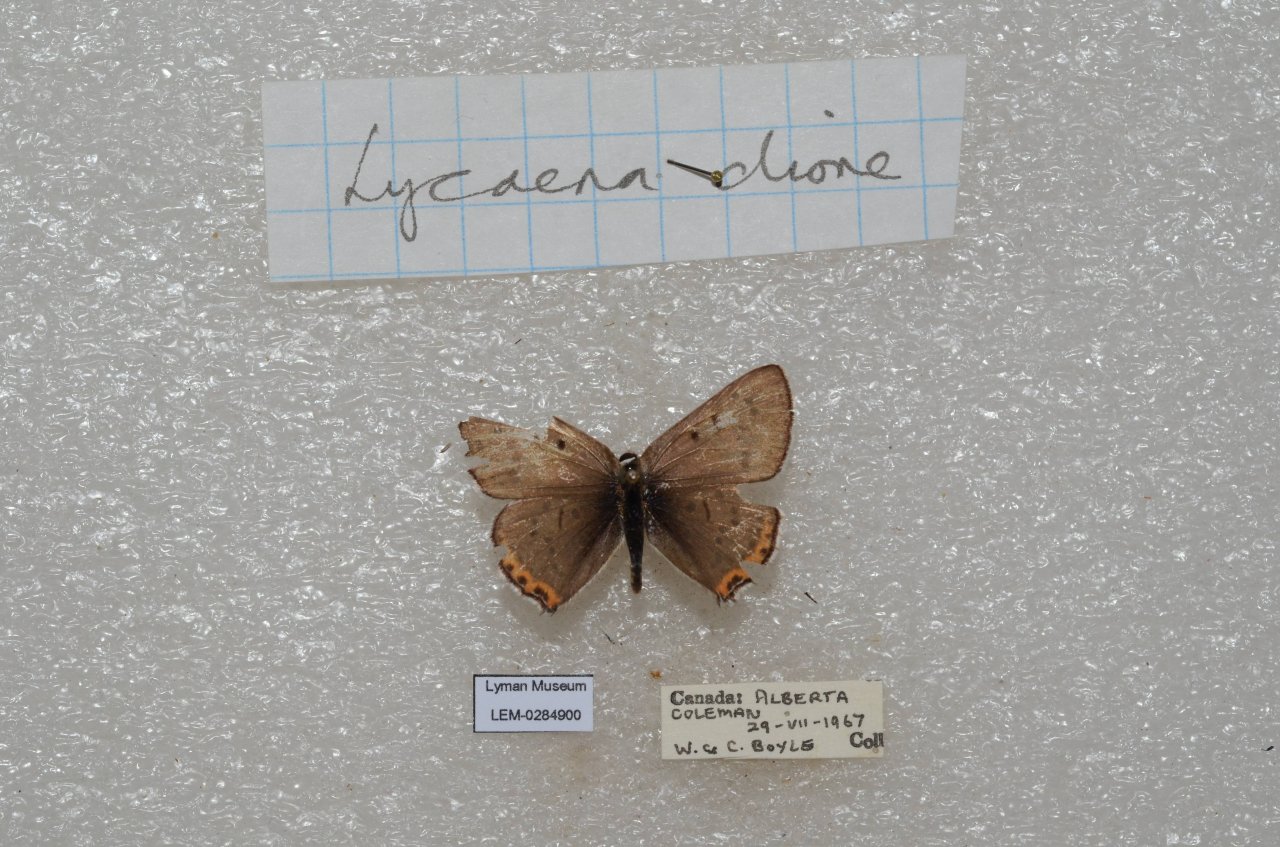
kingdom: Animalia
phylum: Arthropoda
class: Insecta
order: Lepidoptera
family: Lycaenidae
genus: Nacaduba
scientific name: Nacaduba dyopa
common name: Gray Copper
